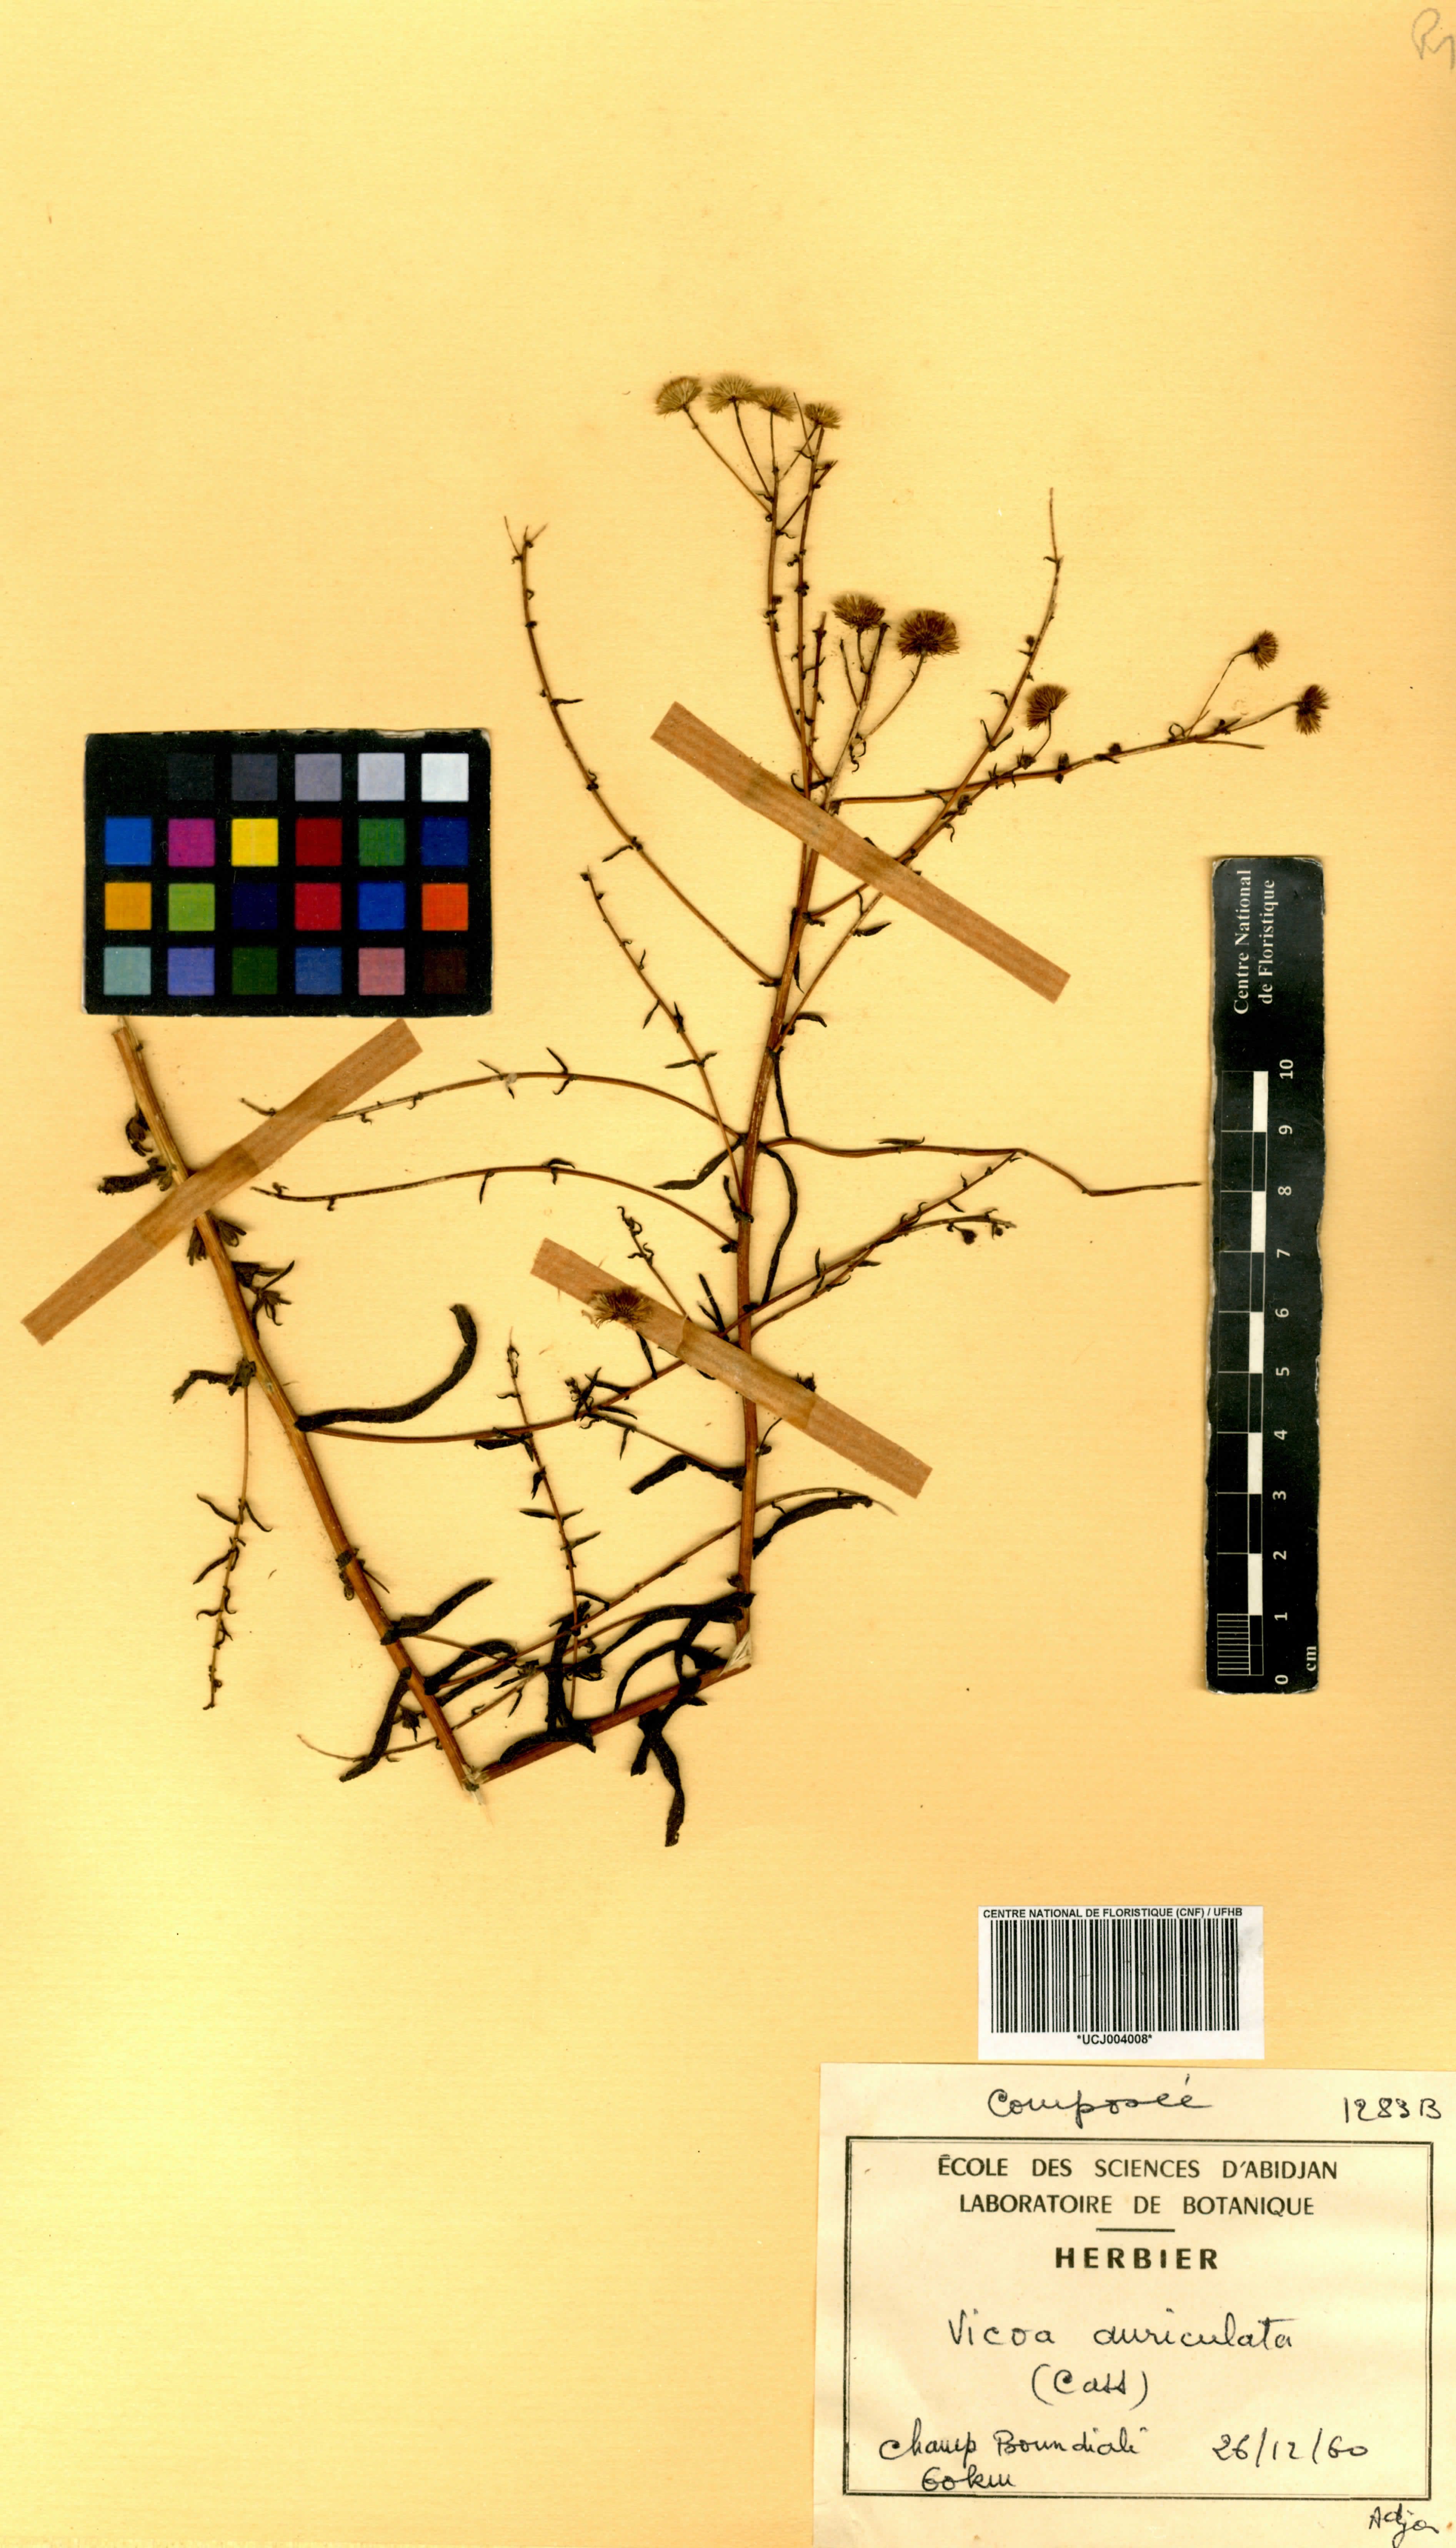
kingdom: Plantae
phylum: Tracheophyta
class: Magnoliopsida
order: Asterales
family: Asteraceae
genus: Vicoa
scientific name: Vicoa
